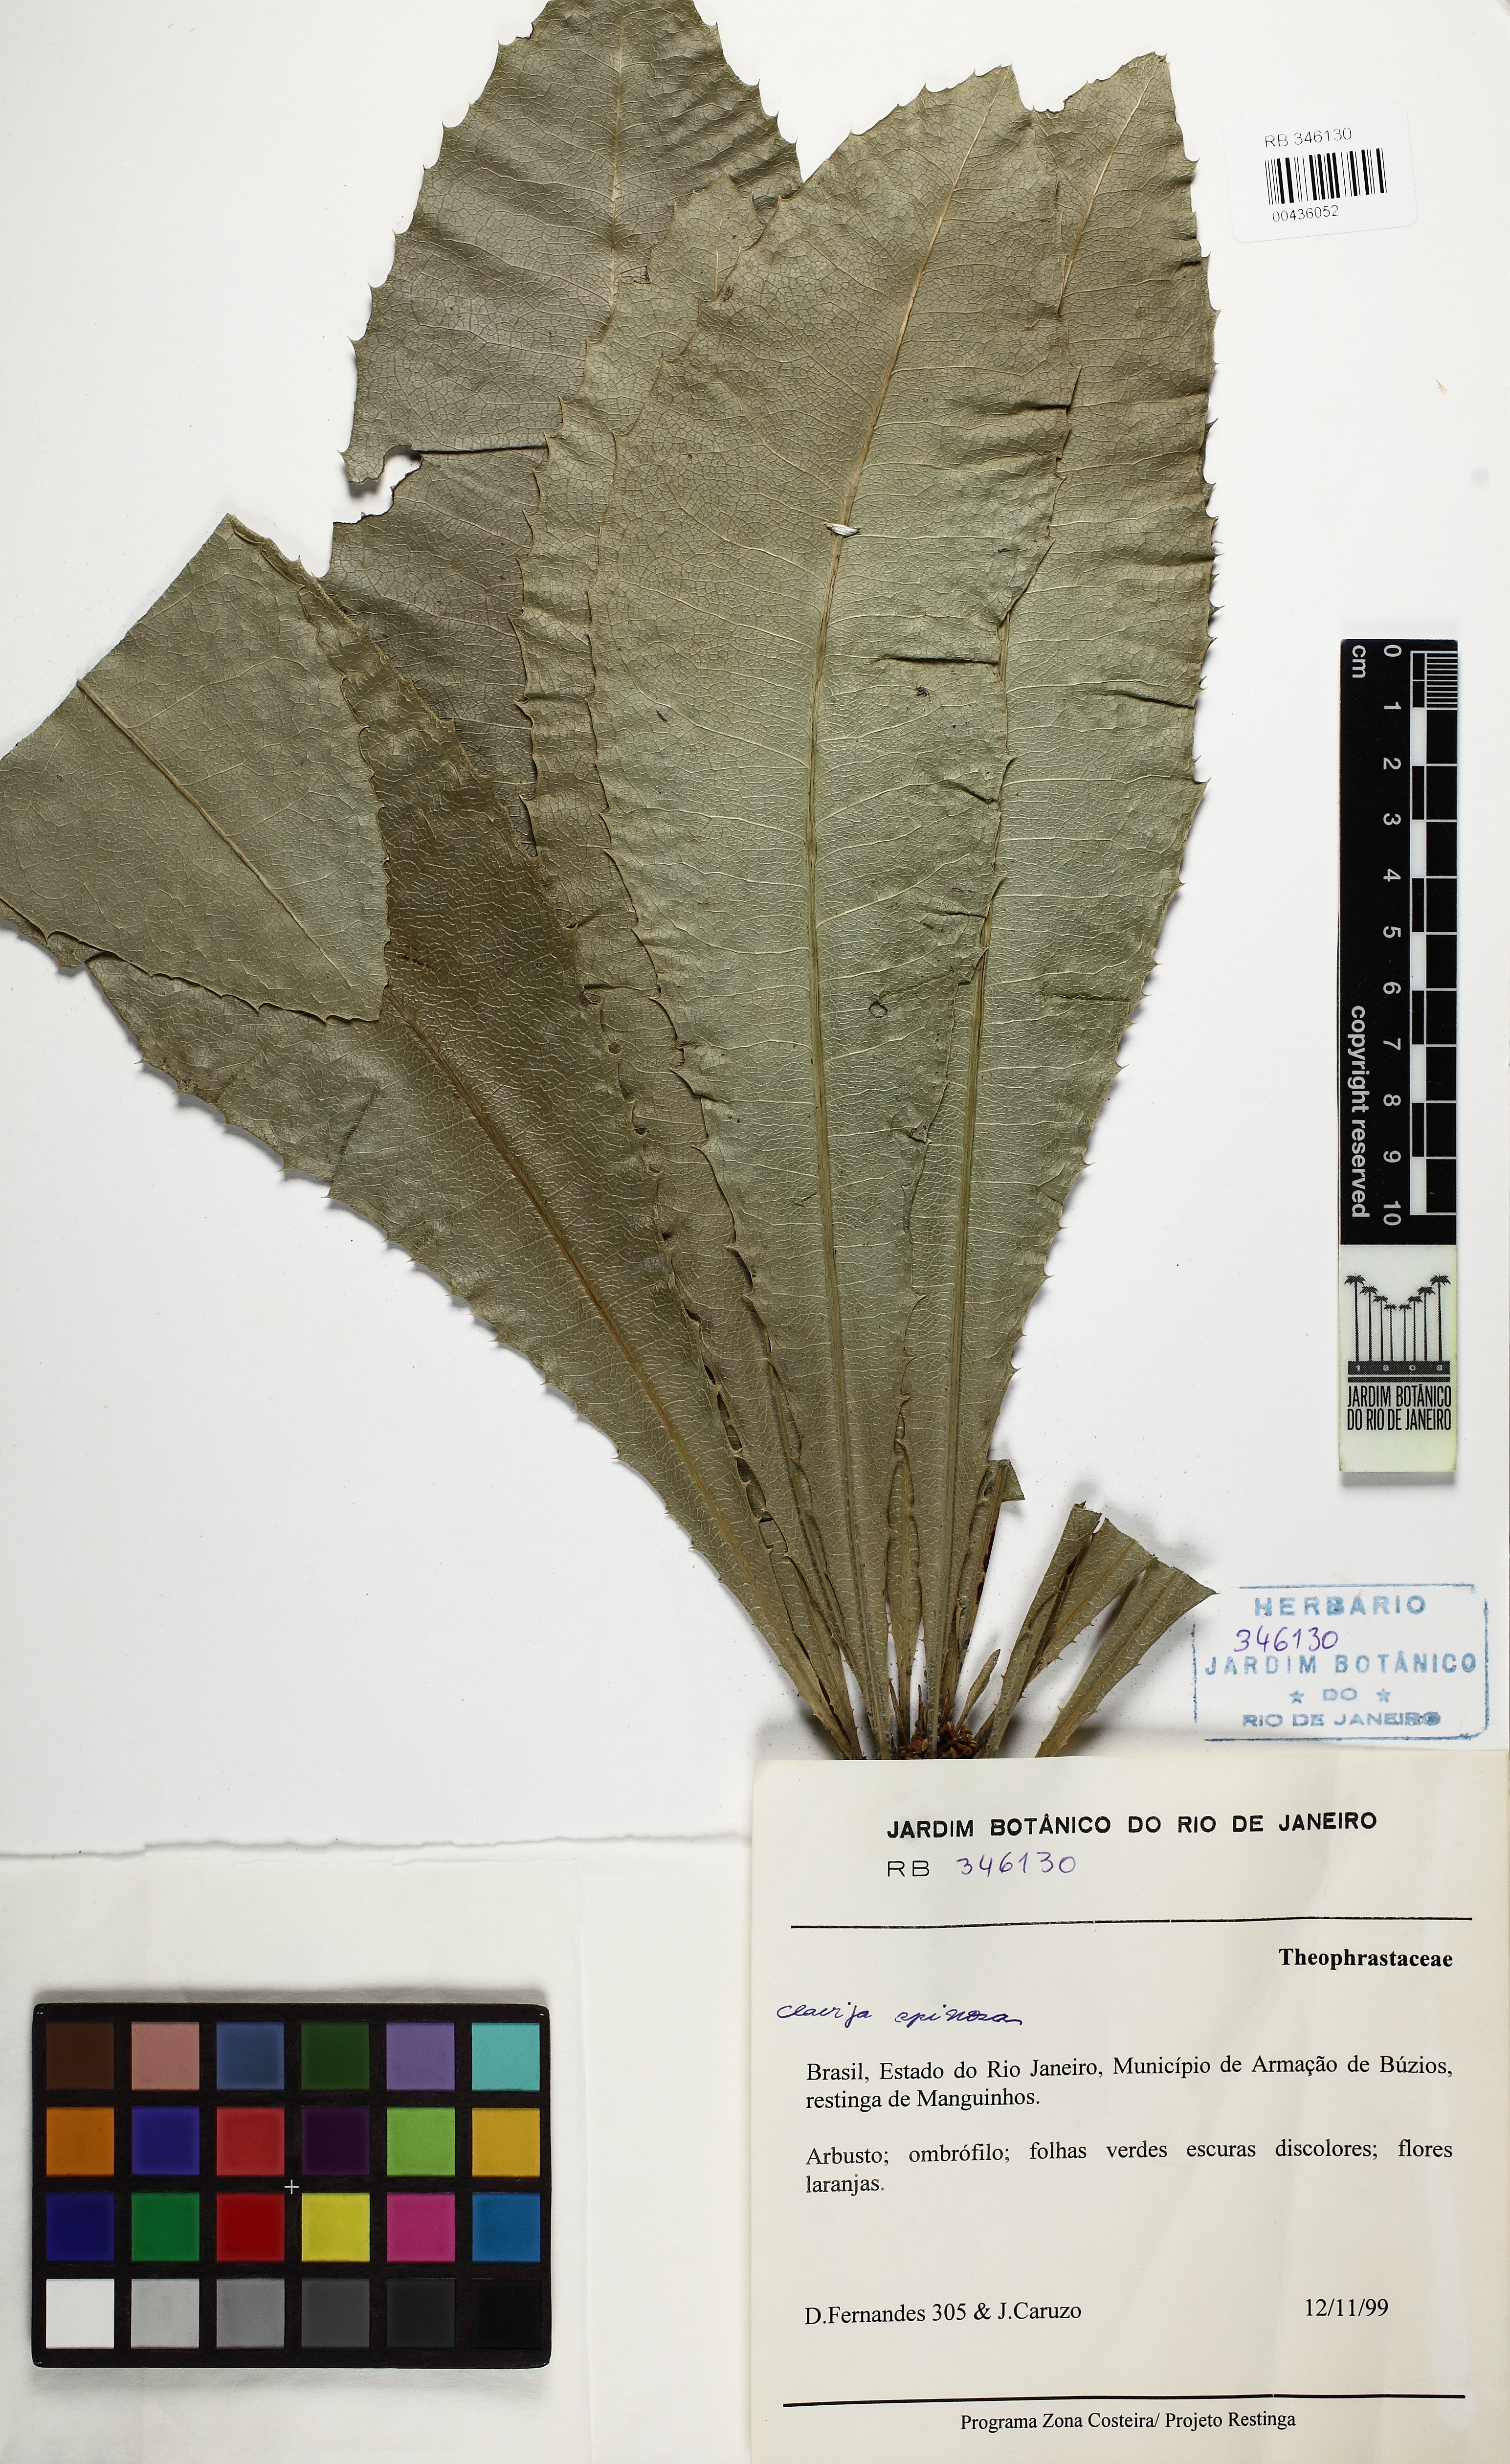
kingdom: Plantae
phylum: Tracheophyta
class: Magnoliopsida
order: Ericales
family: Primulaceae
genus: Clavija
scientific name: Clavija spinosa
